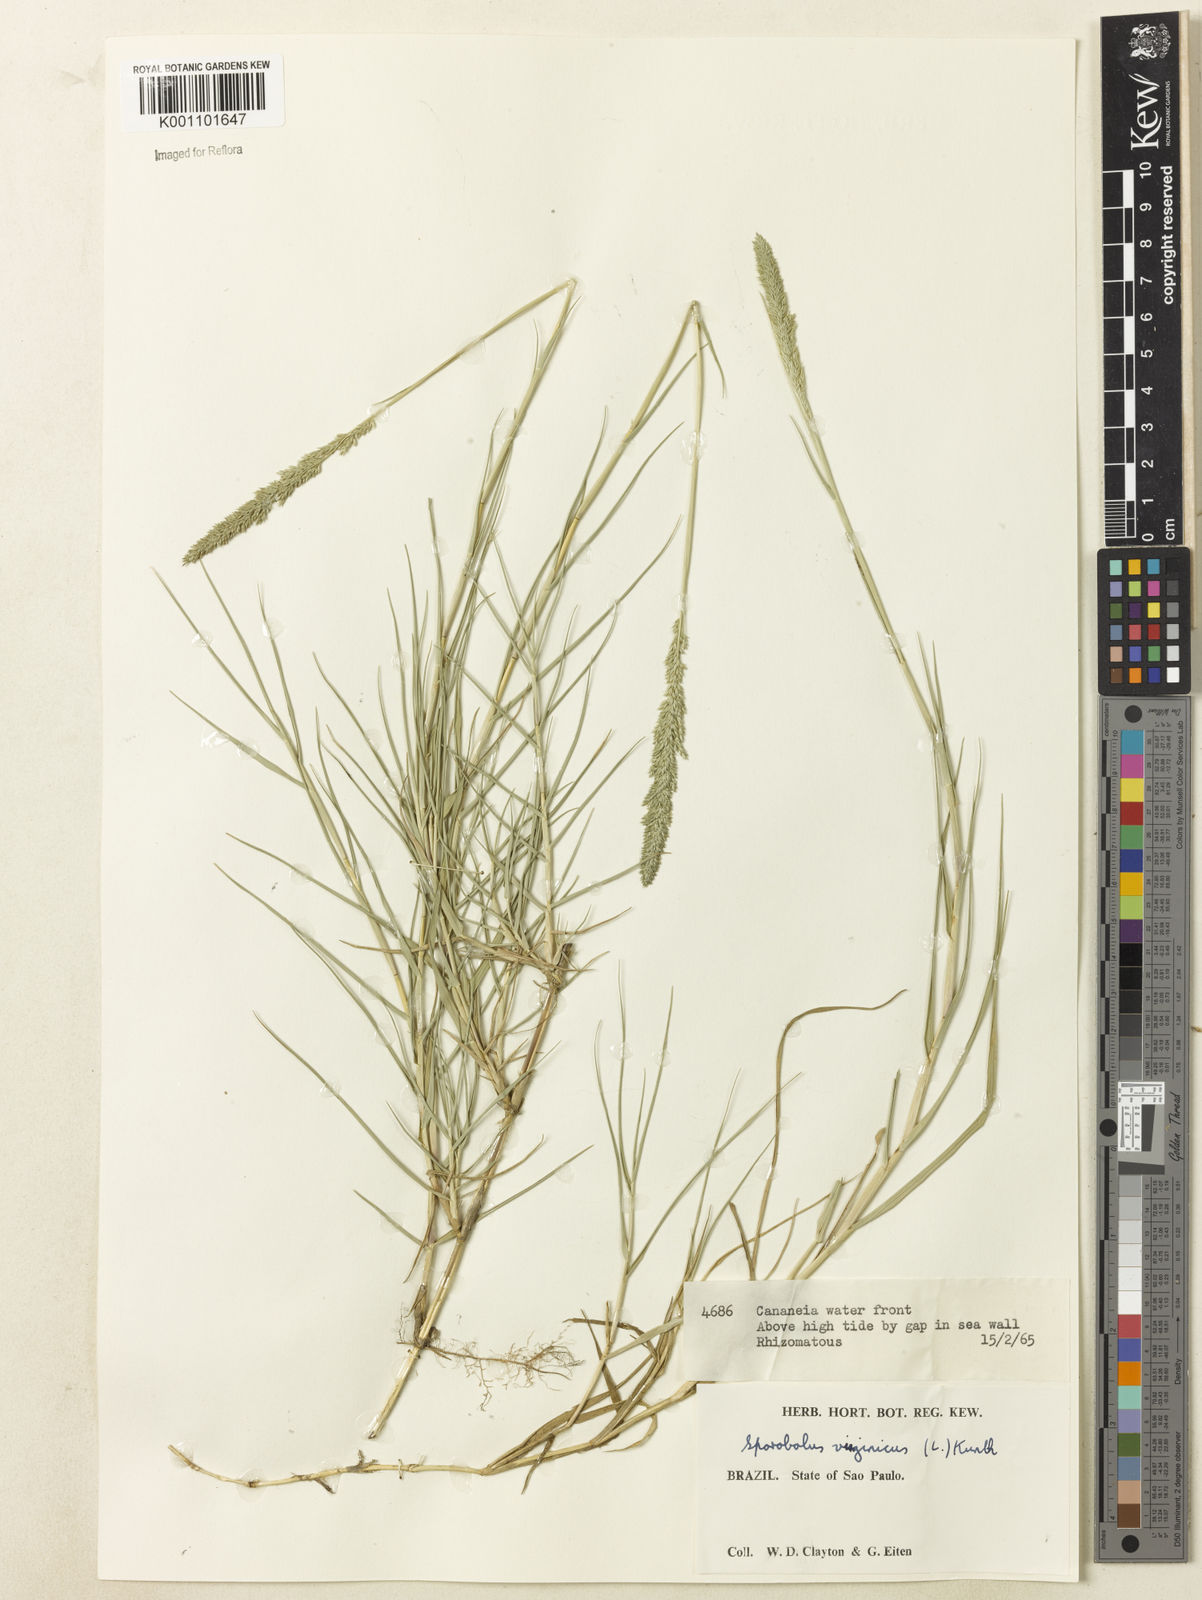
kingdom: Plantae
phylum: Tracheophyta
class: Liliopsida
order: Poales
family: Poaceae
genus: Sporobolus
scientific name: Sporobolus virginicus
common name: Beach dropseed
